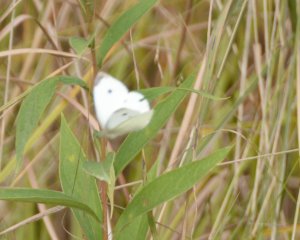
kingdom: Animalia
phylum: Arthropoda
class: Insecta
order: Lepidoptera
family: Pieridae
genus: Pieris
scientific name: Pieris rapae
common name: Cabbage White
